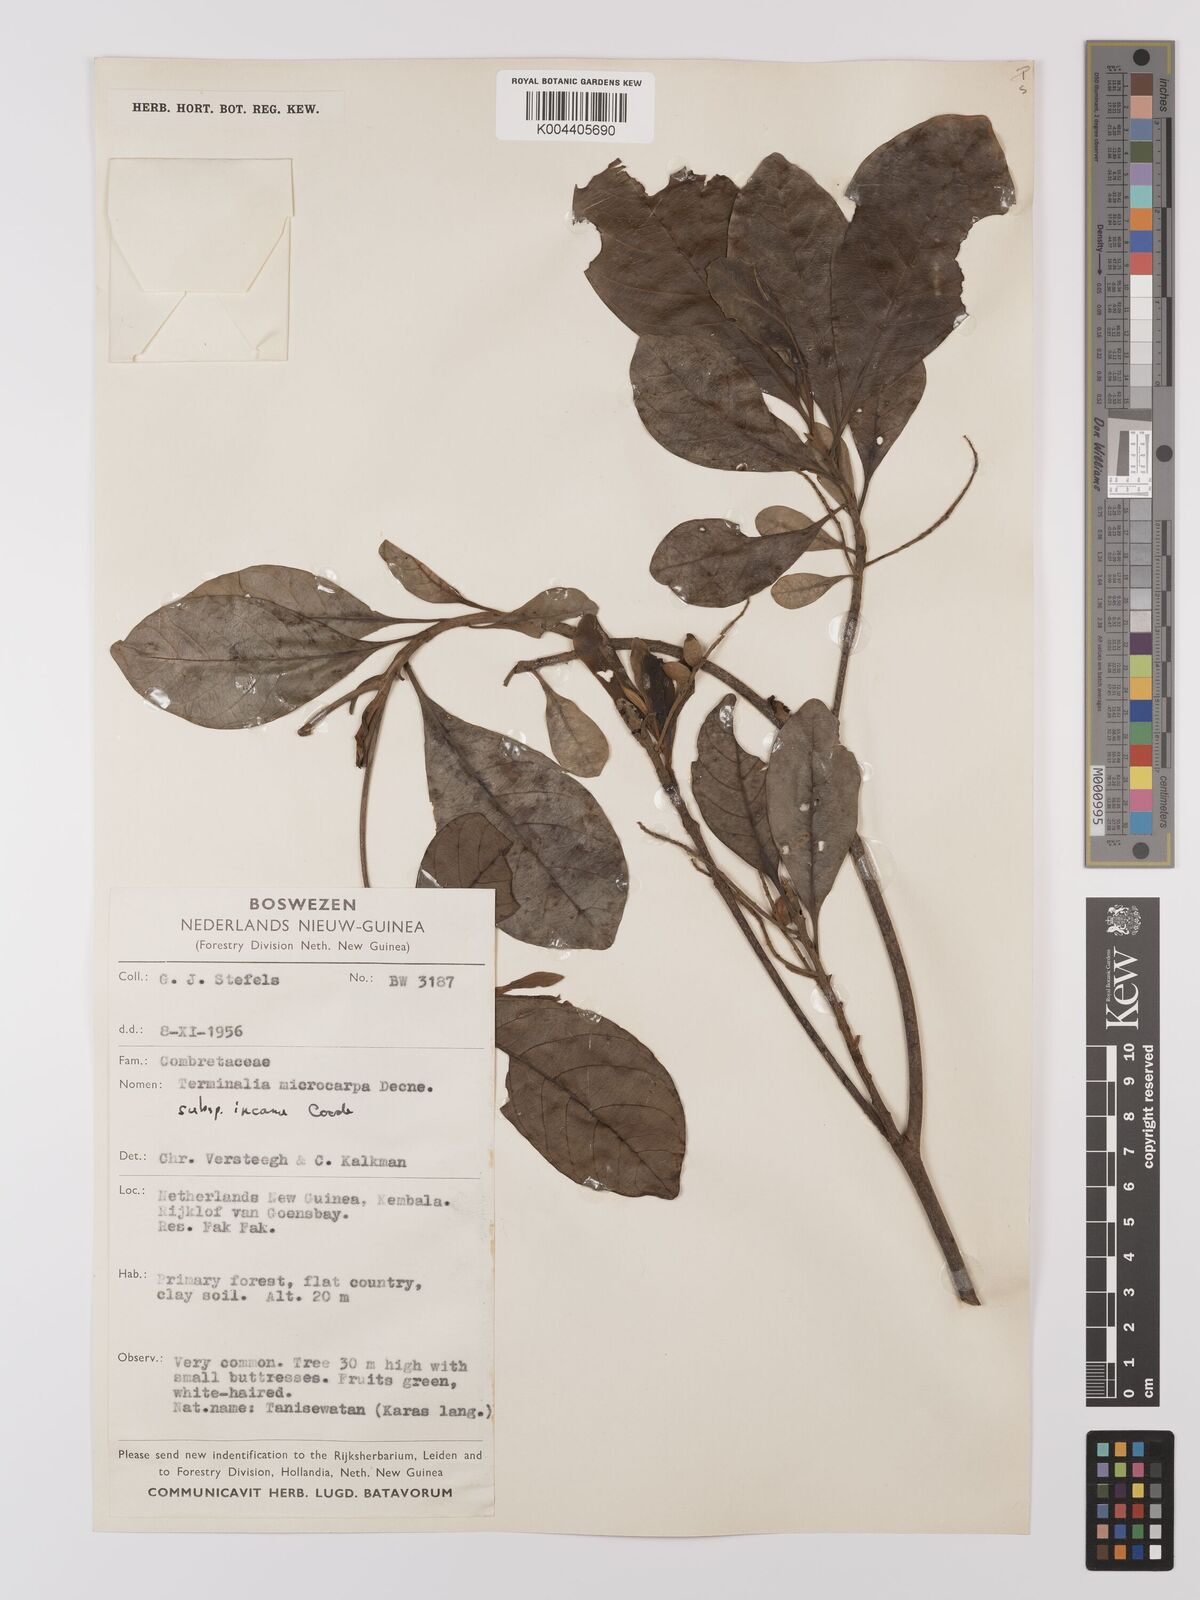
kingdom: Plantae
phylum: Tracheophyta
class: Magnoliopsida
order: Myrtales
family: Combretaceae
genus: Terminalia
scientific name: Terminalia microcarpa
